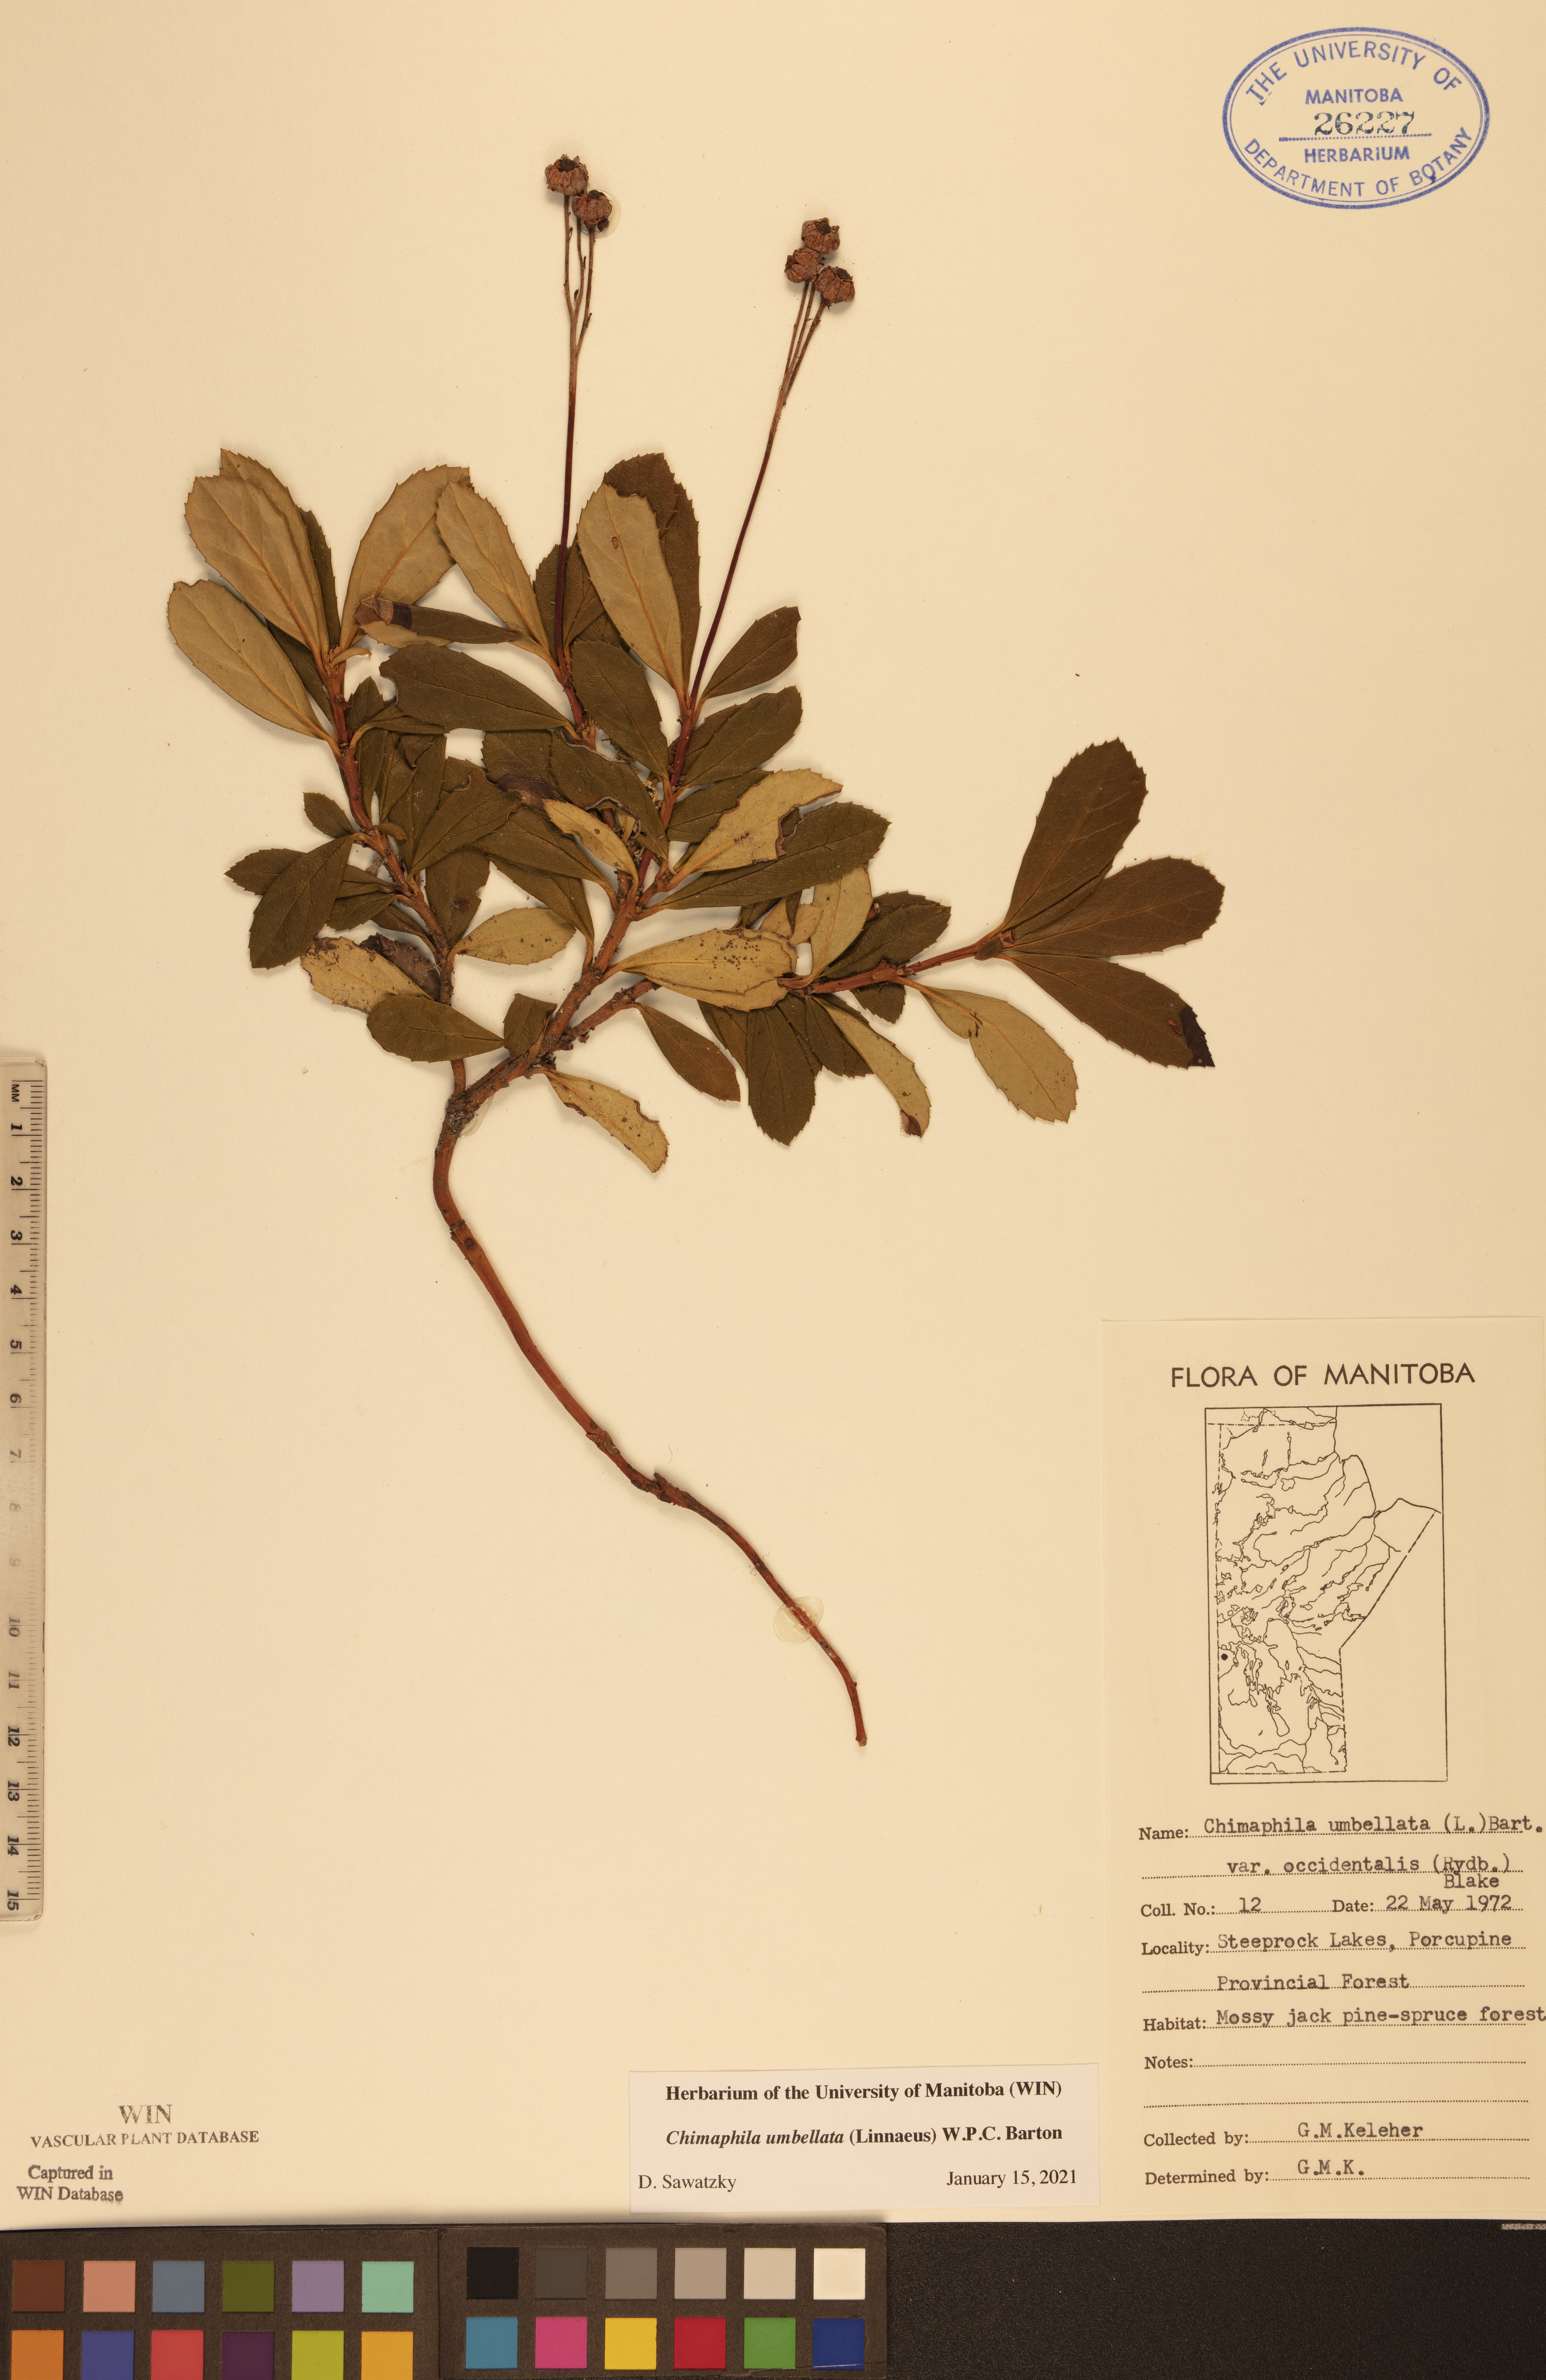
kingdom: Plantae
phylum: Tracheophyta
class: Magnoliopsida
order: Ericales
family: Ericaceae
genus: Chimaphila
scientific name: Chimaphila umbellata
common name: Pipsissewa
